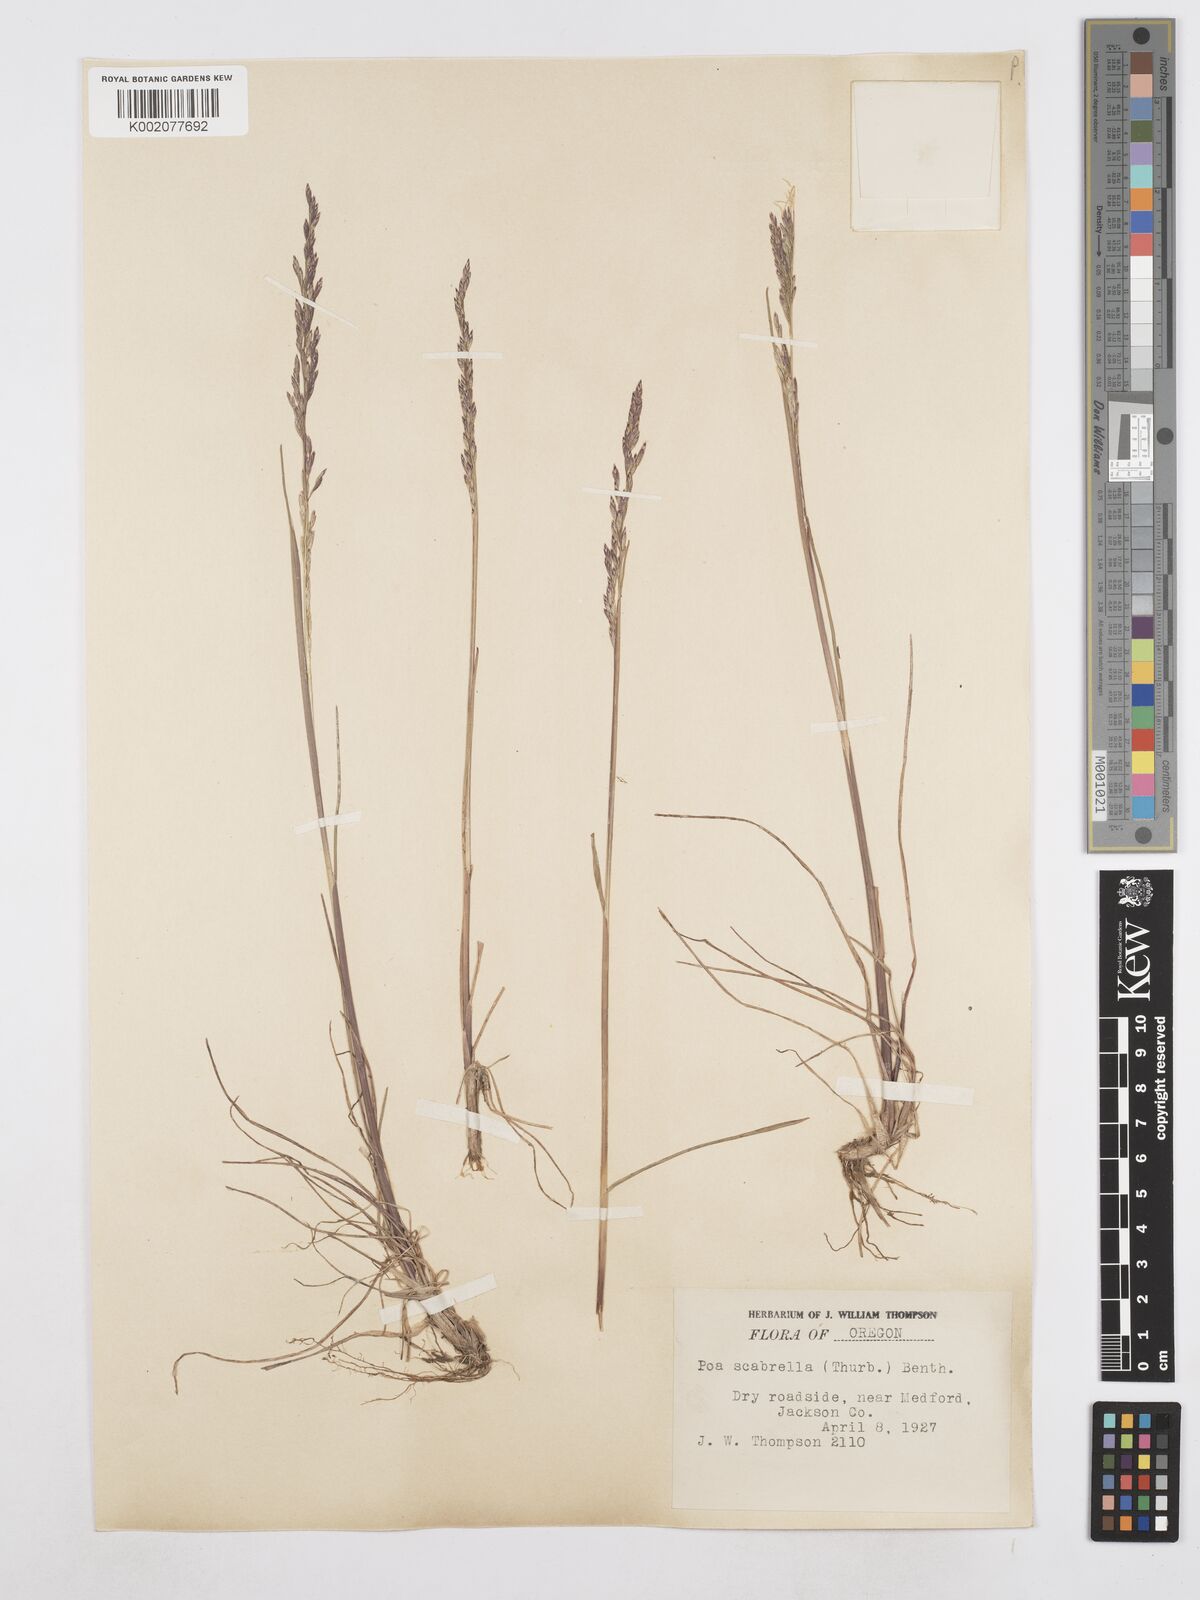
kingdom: Plantae
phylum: Tracheophyta
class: Liliopsida
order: Poales
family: Poaceae
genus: Poa
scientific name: Poa secunda
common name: Sandberg bluegrass
